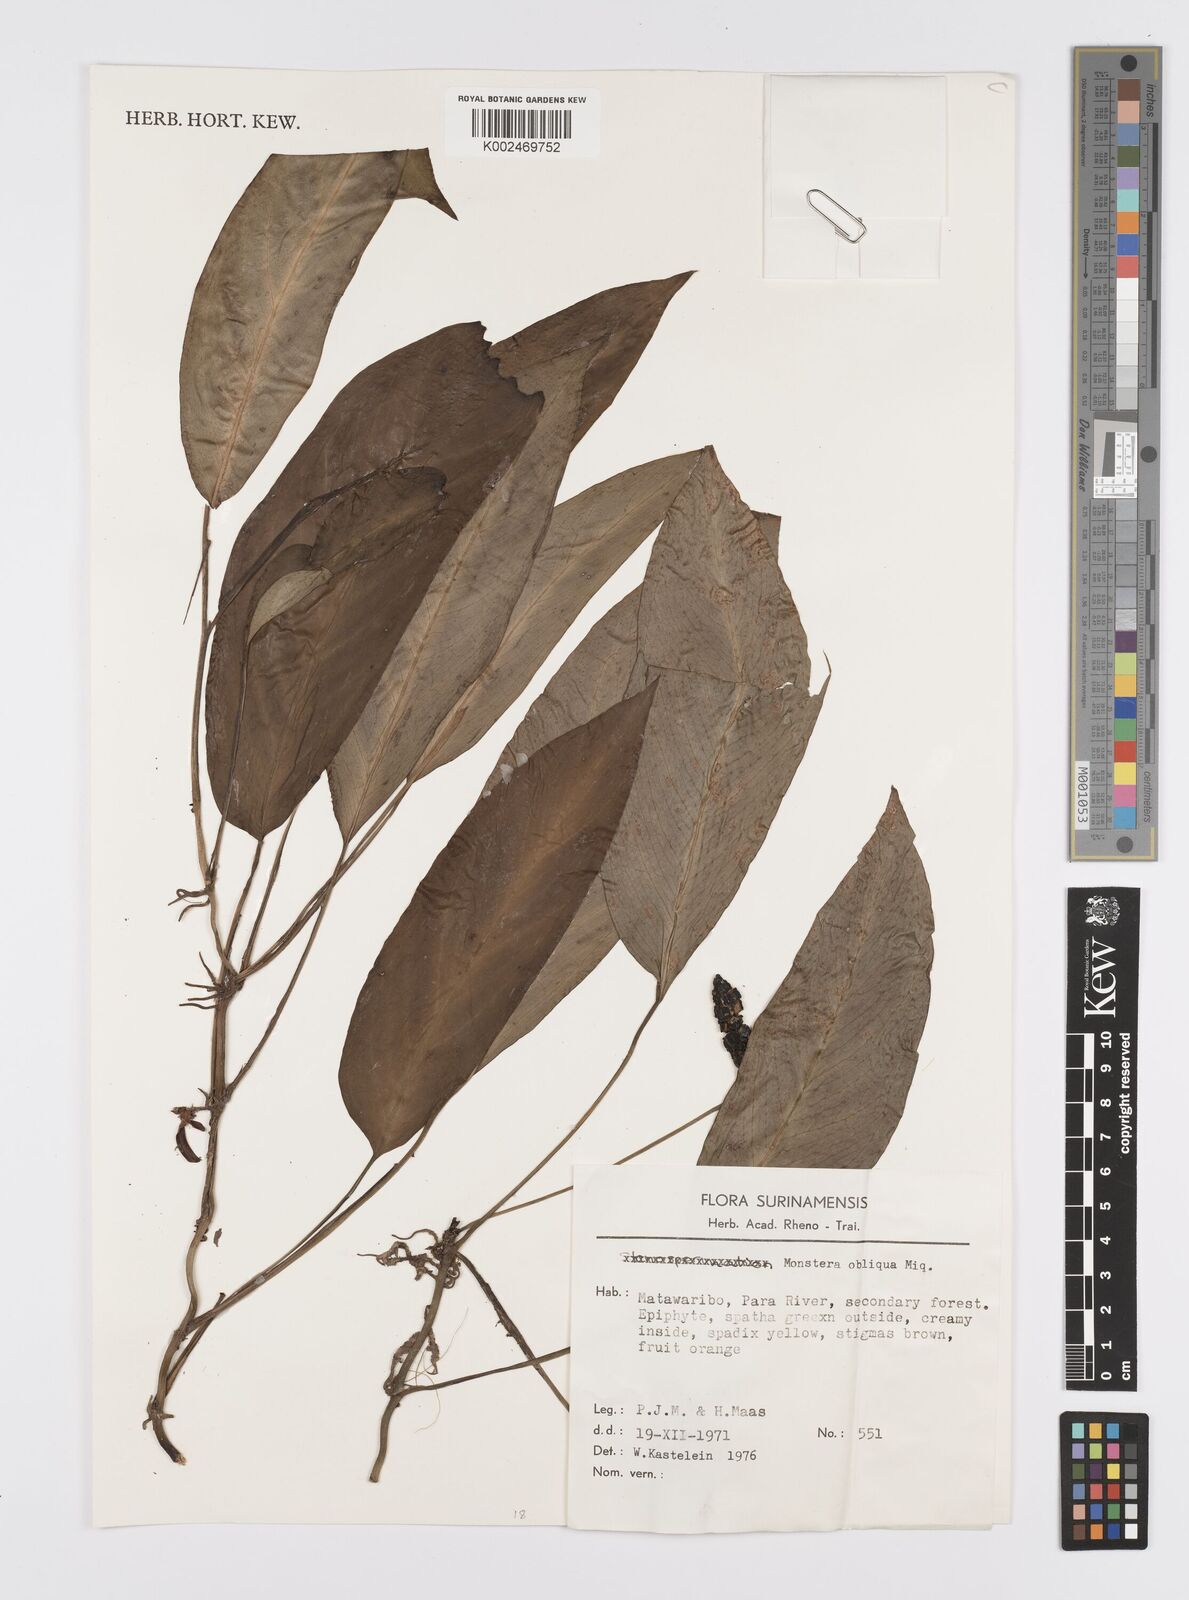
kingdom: Plantae
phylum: Tracheophyta
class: Liliopsida
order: Alismatales
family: Araceae
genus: Monstera
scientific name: Monstera obliqua
